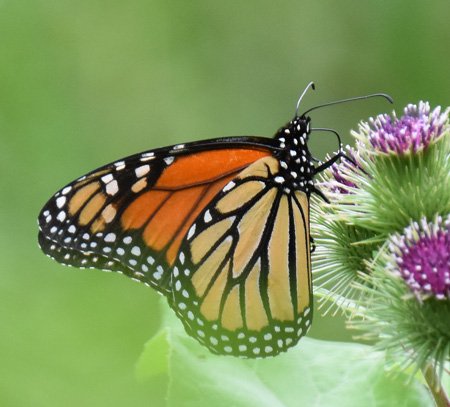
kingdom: Animalia
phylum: Arthropoda
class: Insecta
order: Lepidoptera
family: Nymphalidae
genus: Danaus
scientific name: Danaus plexippus
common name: Monarch
